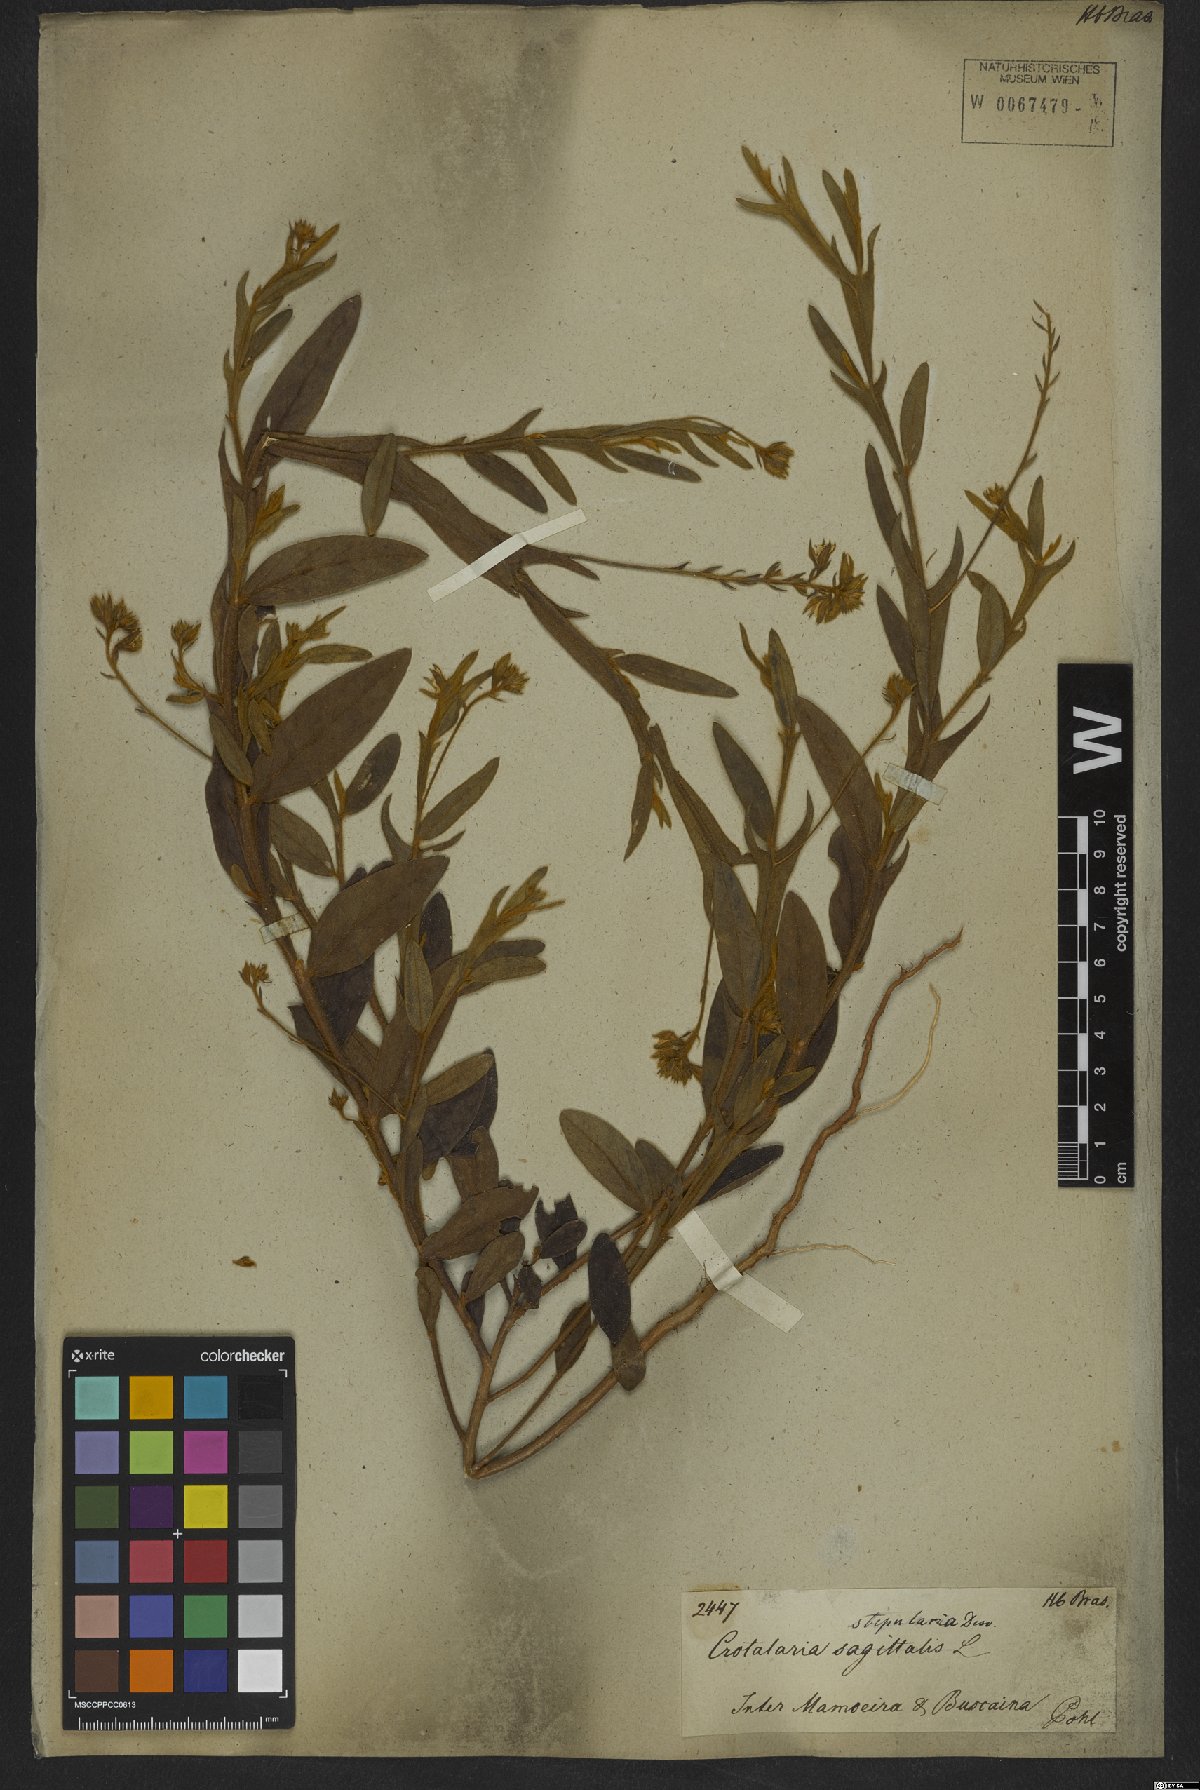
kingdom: Plantae
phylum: Tracheophyta
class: Magnoliopsida
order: Fabales
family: Fabaceae
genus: Crotalaria
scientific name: Crotalaria stipularia
